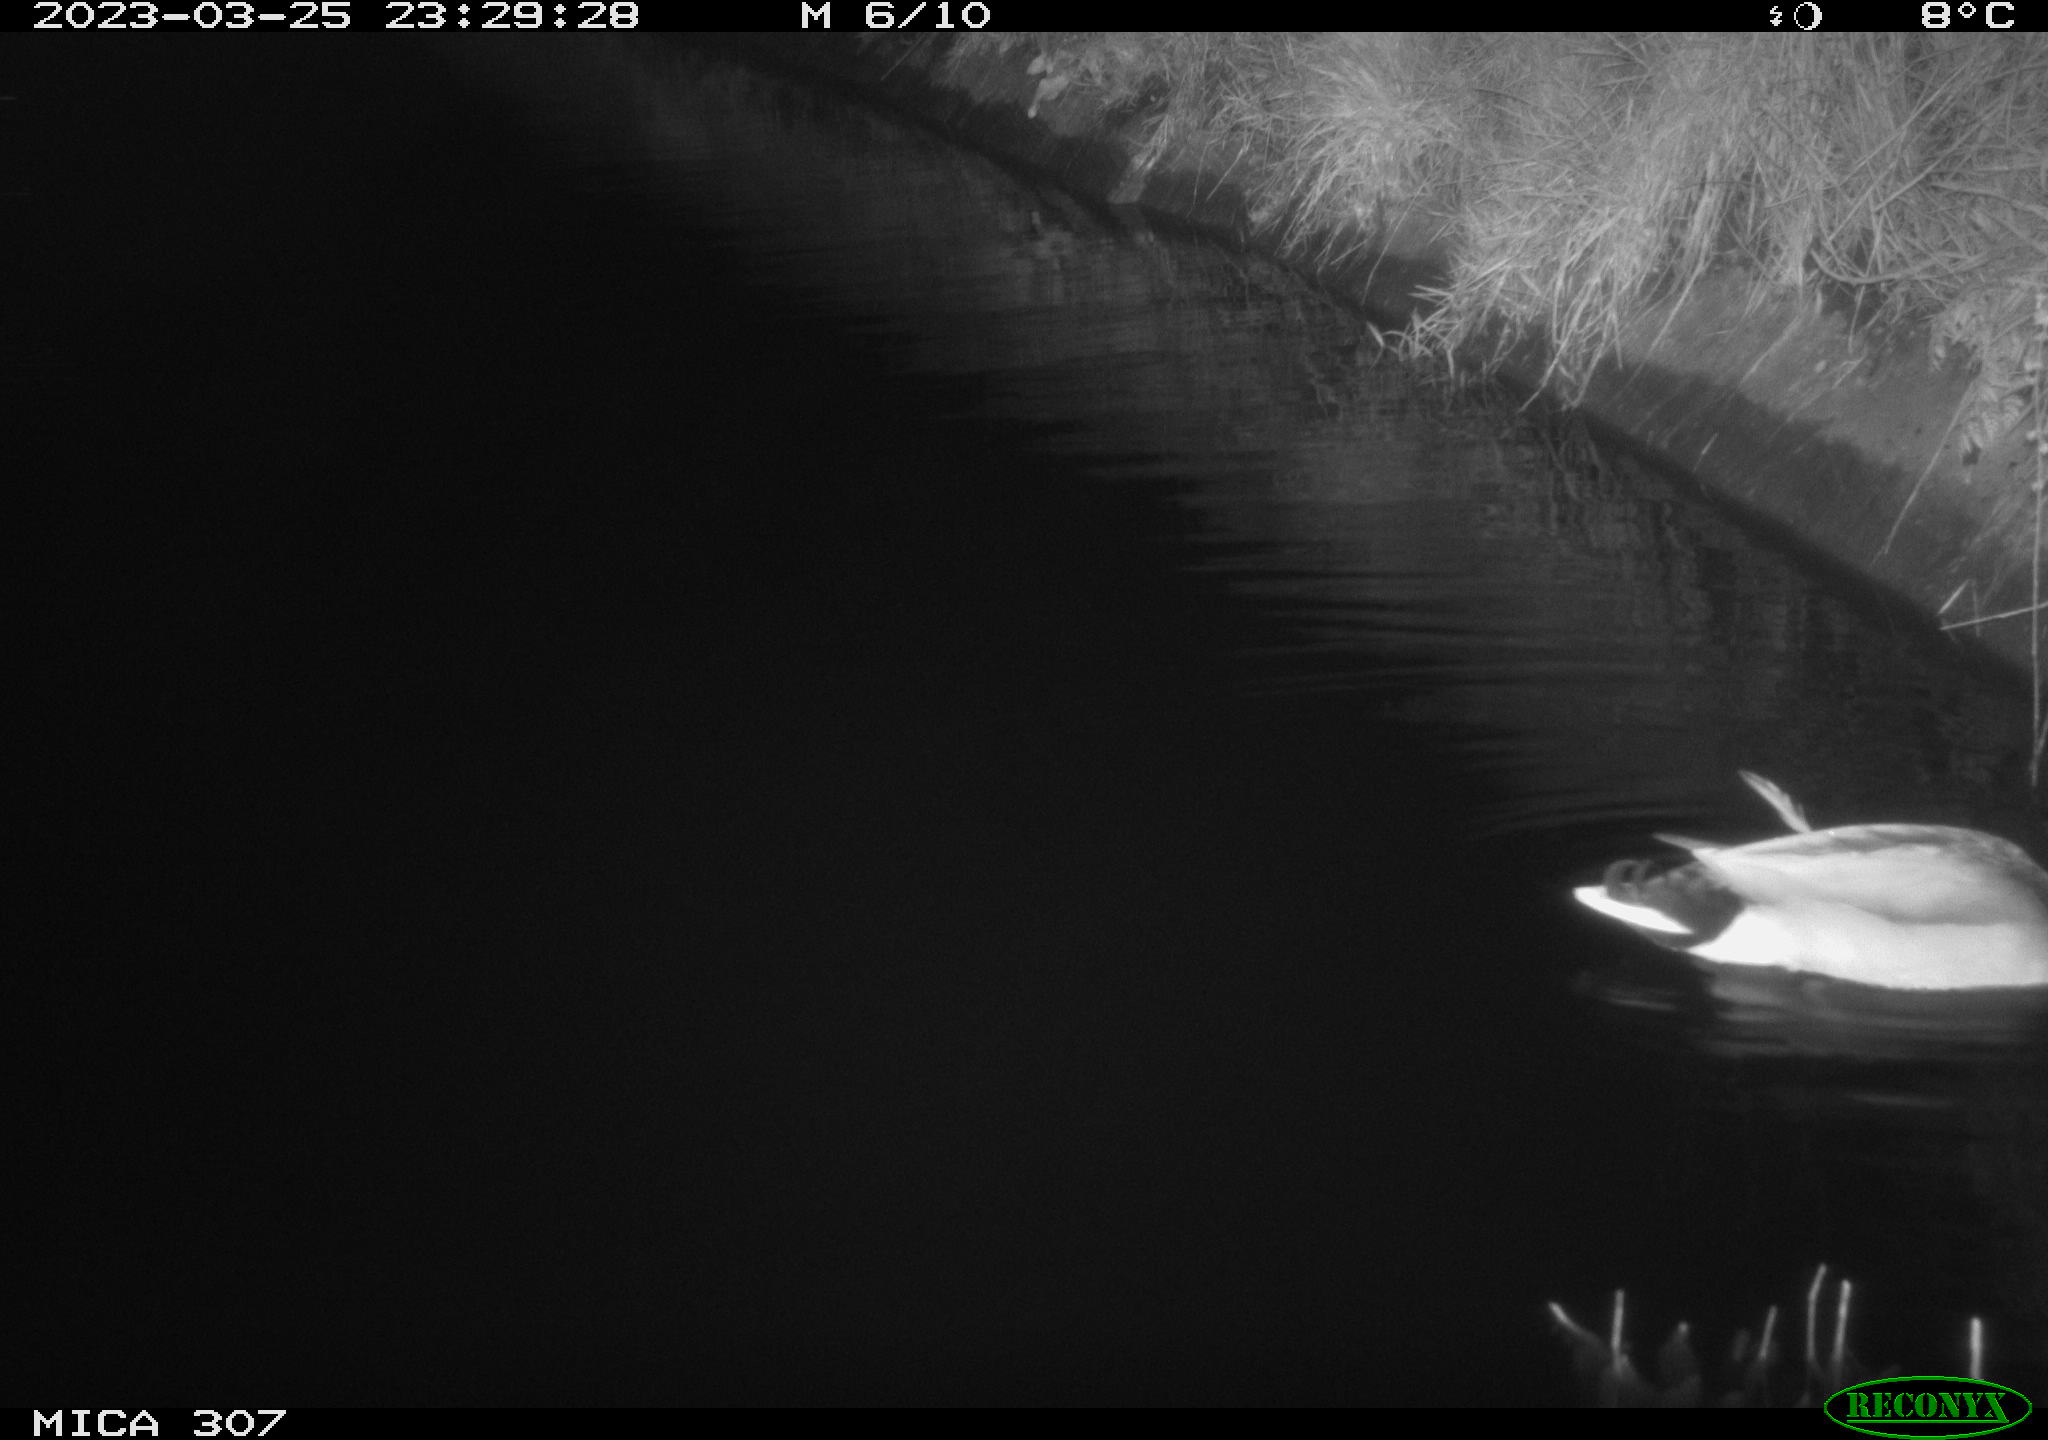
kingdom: Animalia
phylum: Chordata
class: Aves
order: Anseriformes
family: Anatidae
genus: Anas
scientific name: Anas
